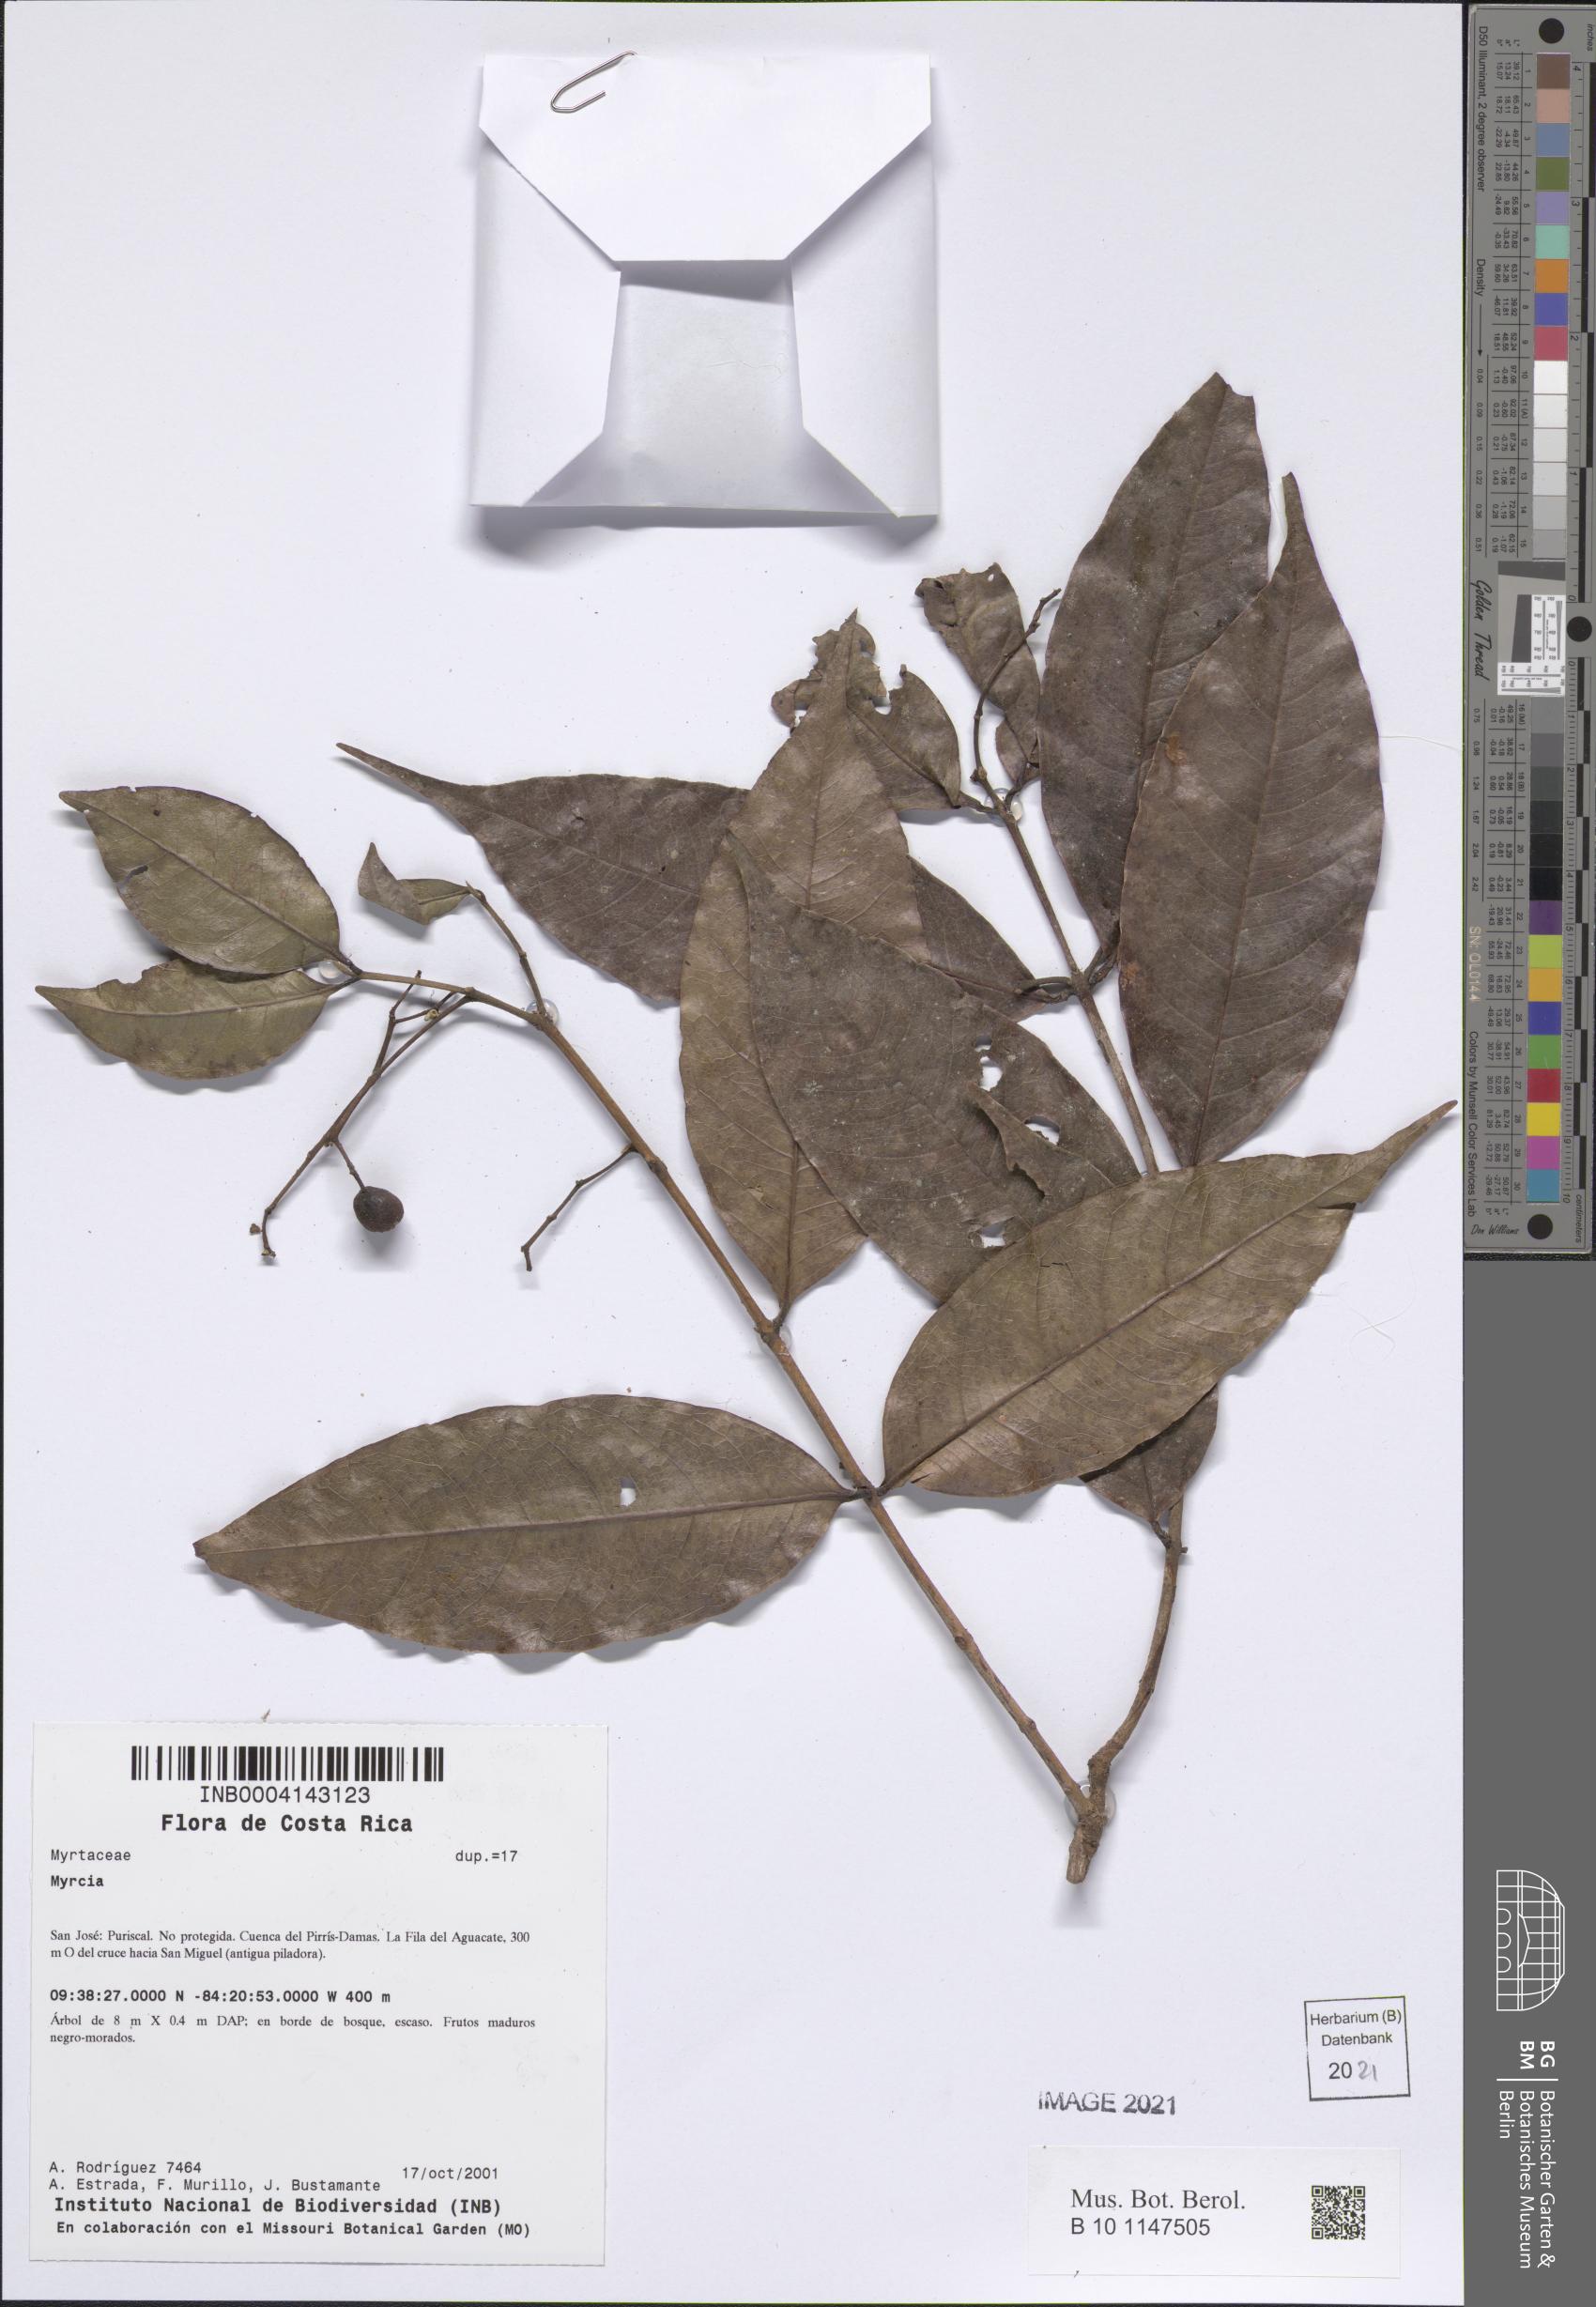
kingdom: Plantae
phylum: Tracheophyta
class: Magnoliopsida
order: Myrtales
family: Myrtaceae
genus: Myrcia
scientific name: Myrcia
